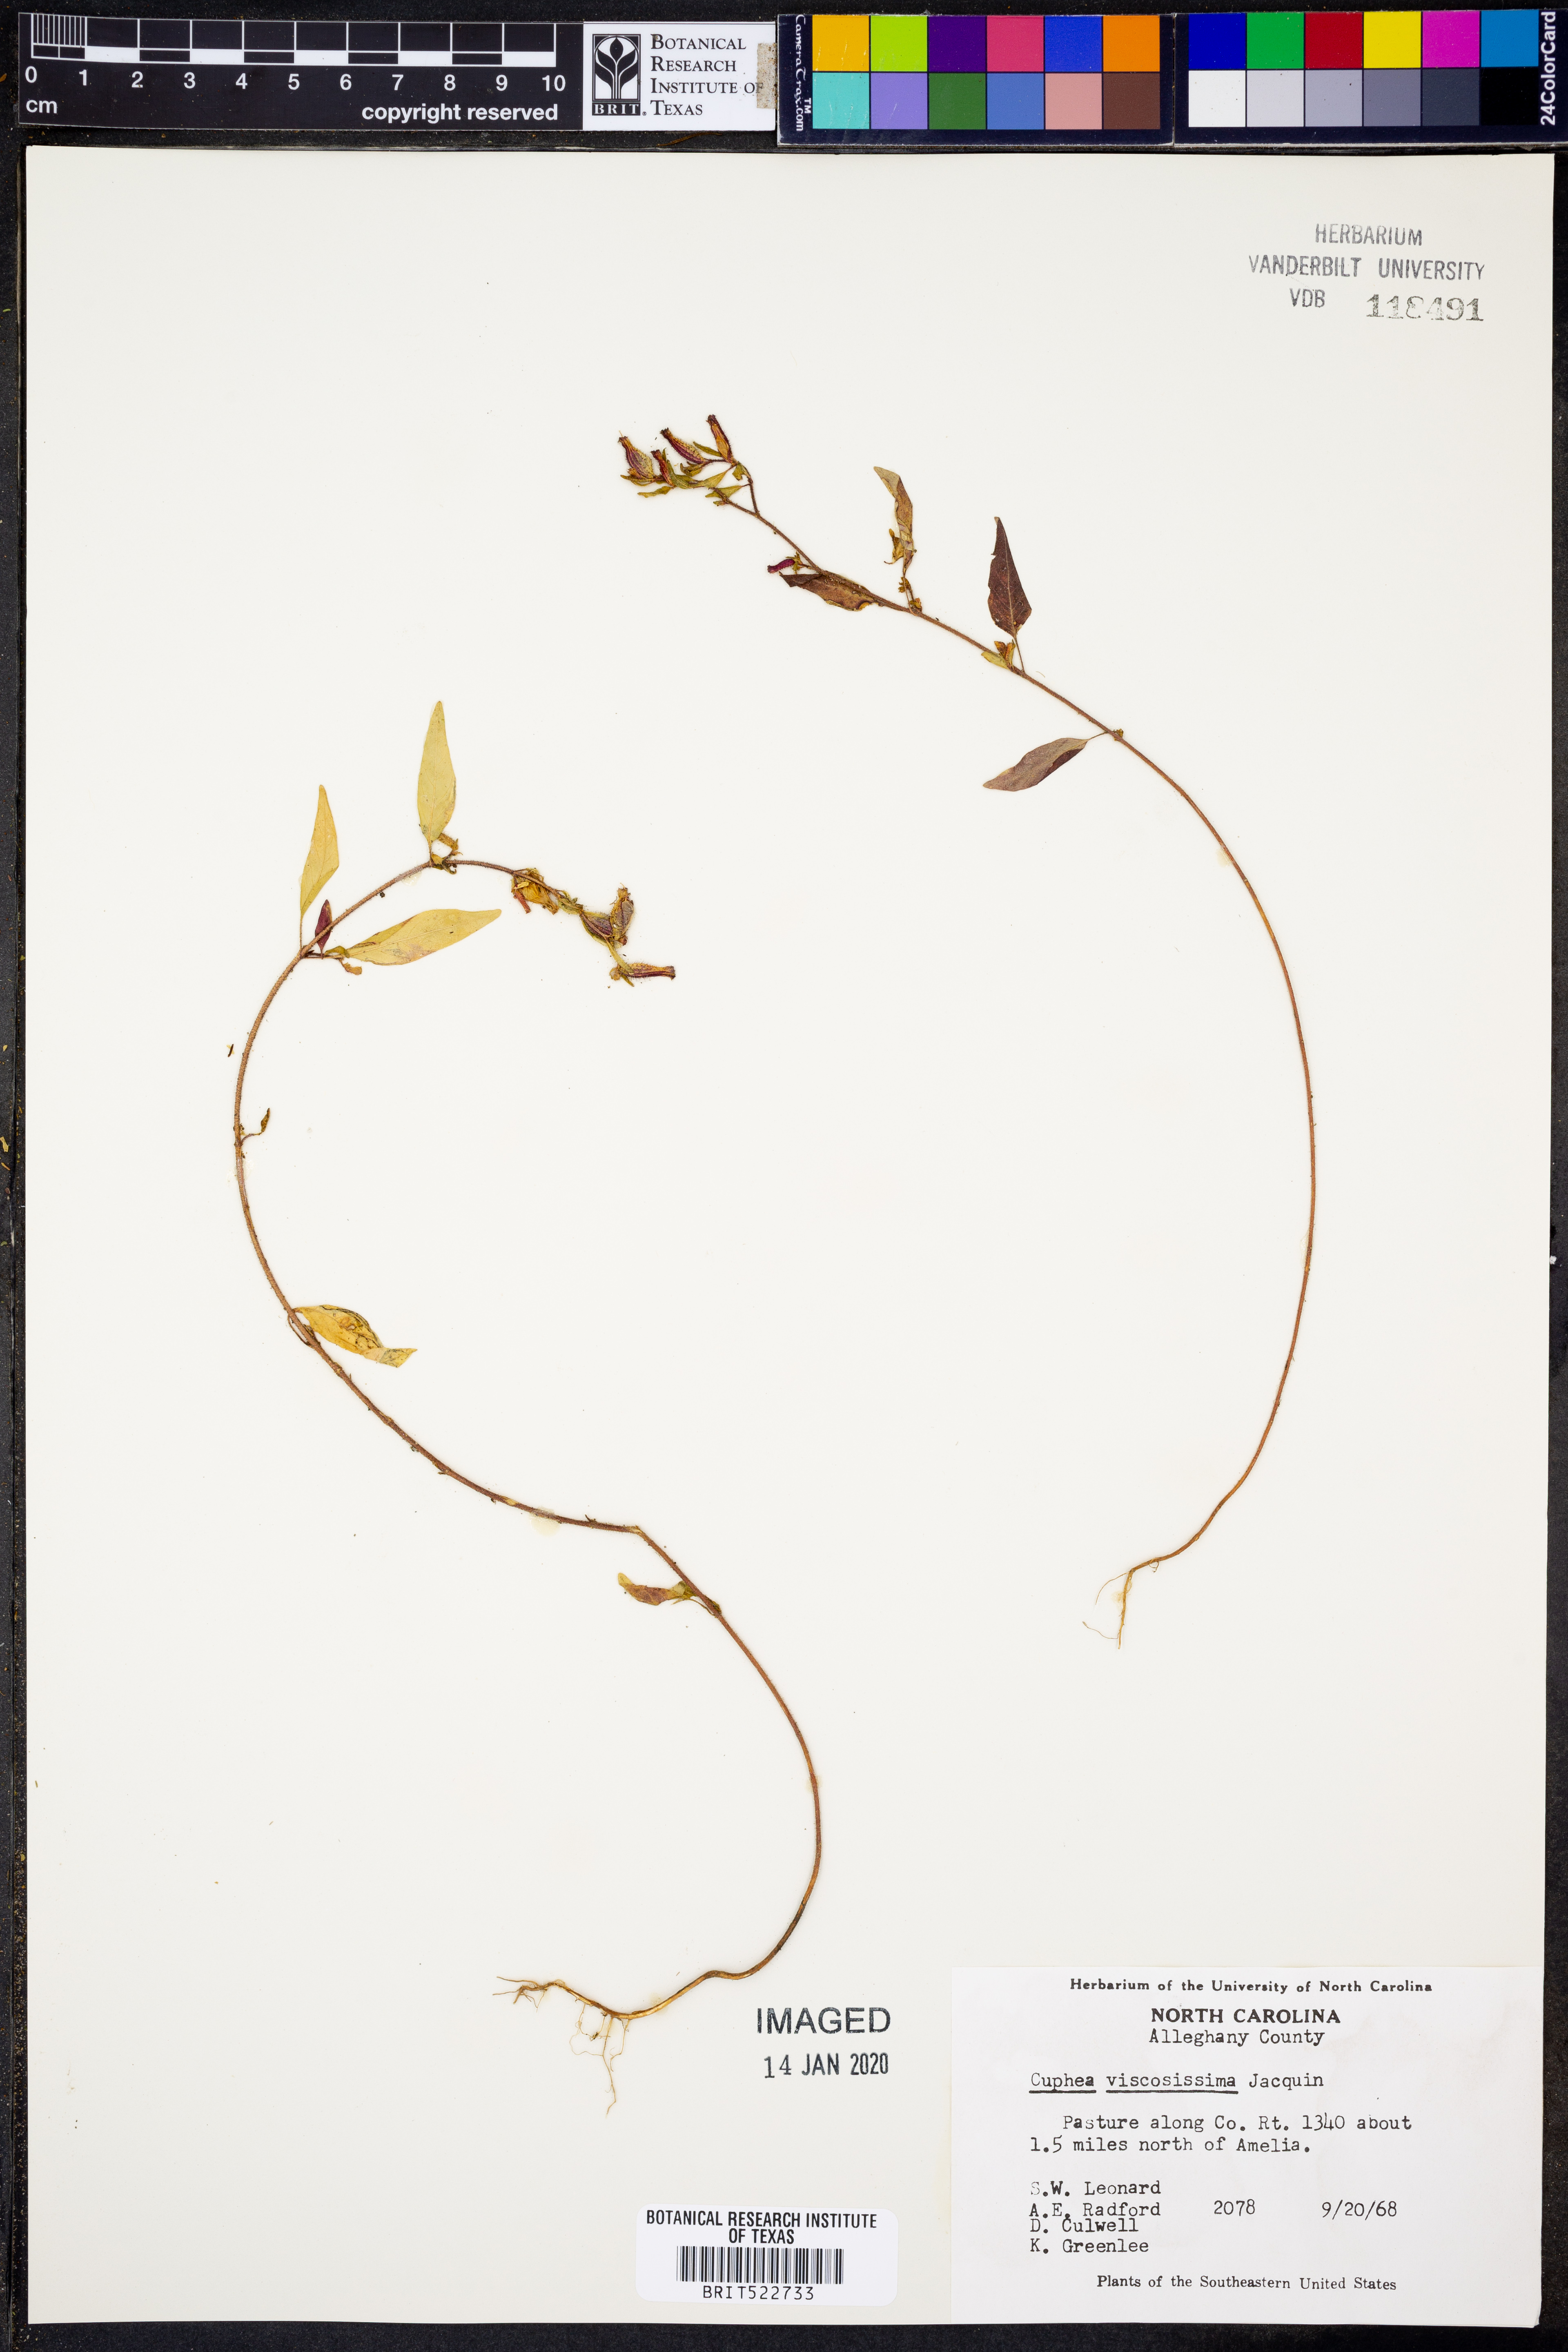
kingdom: Plantae
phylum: Tracheophyta
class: Magnoliopsida
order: Myrtales
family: Lythraceae
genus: Cuphea
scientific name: Cuphea viscosissima
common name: Clammy cuphea
